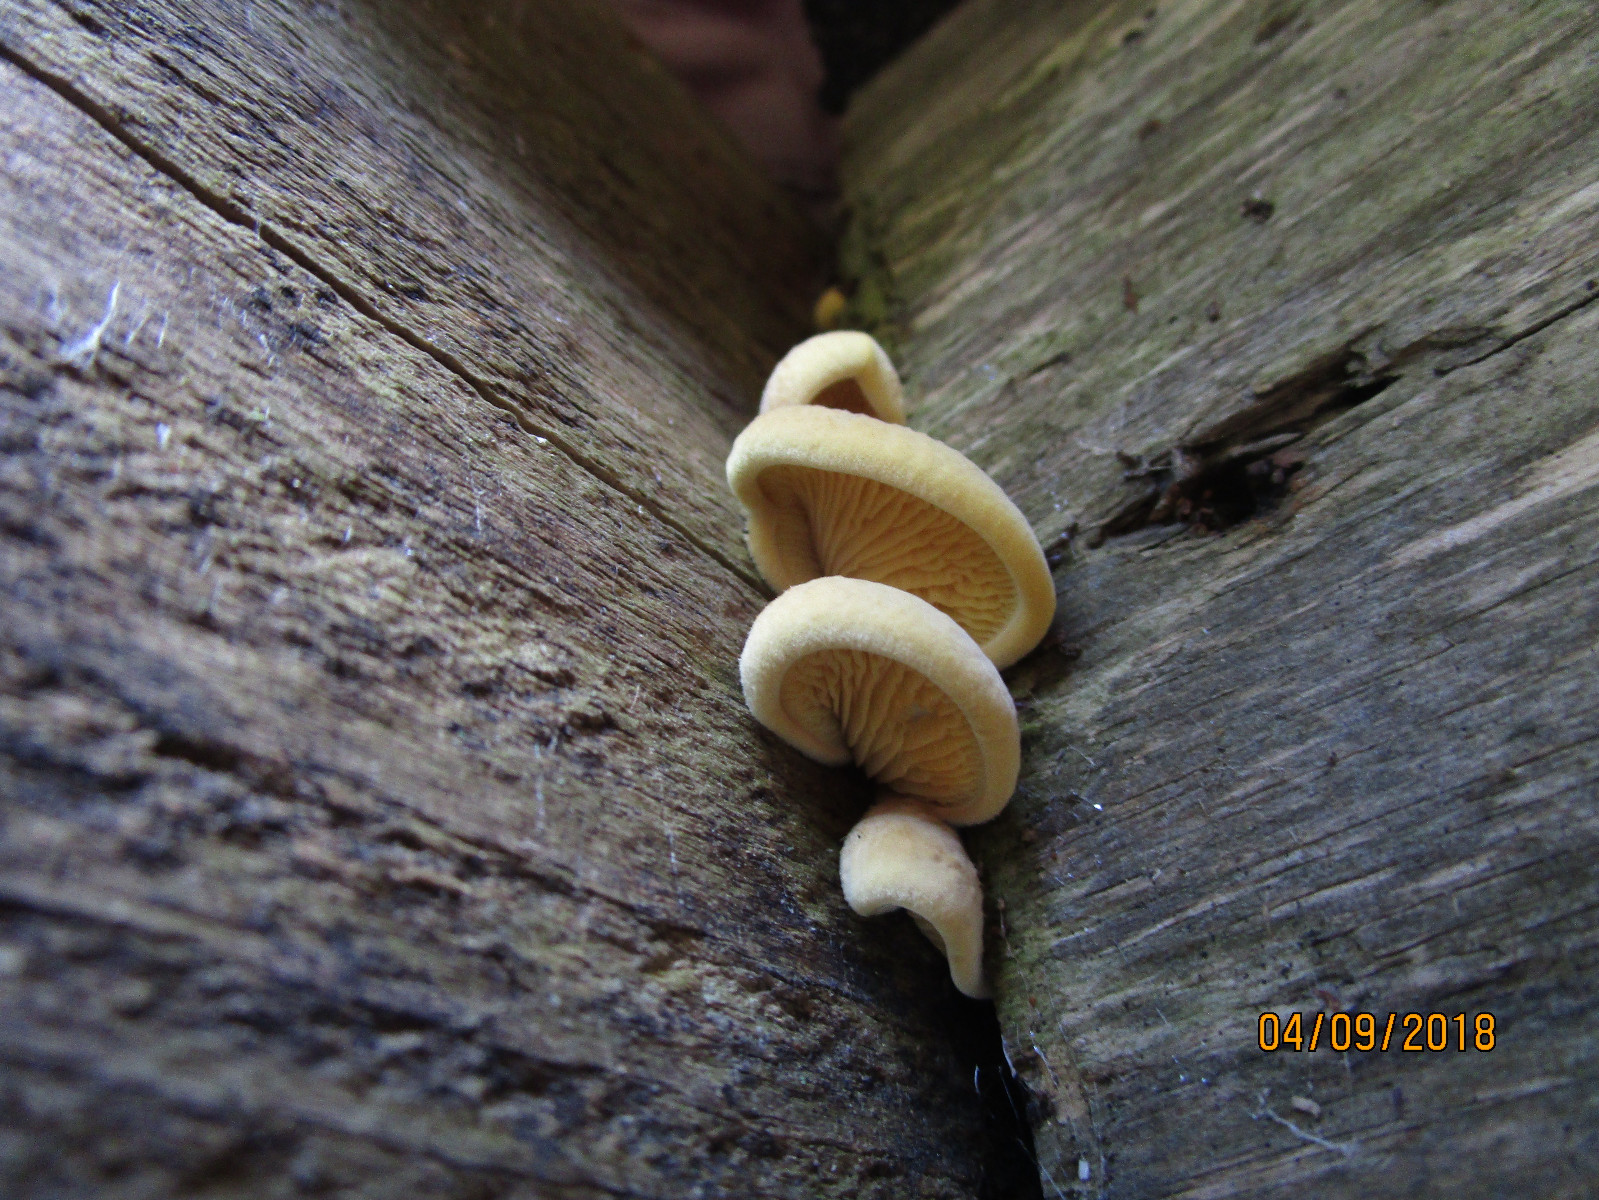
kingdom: Fungi
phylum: Basidiomycota
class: Agaricomycetes
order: Boletales
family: Tapinellaceae
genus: Tapinella
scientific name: Tapinella panuoides
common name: tømmer-viftesvamp
